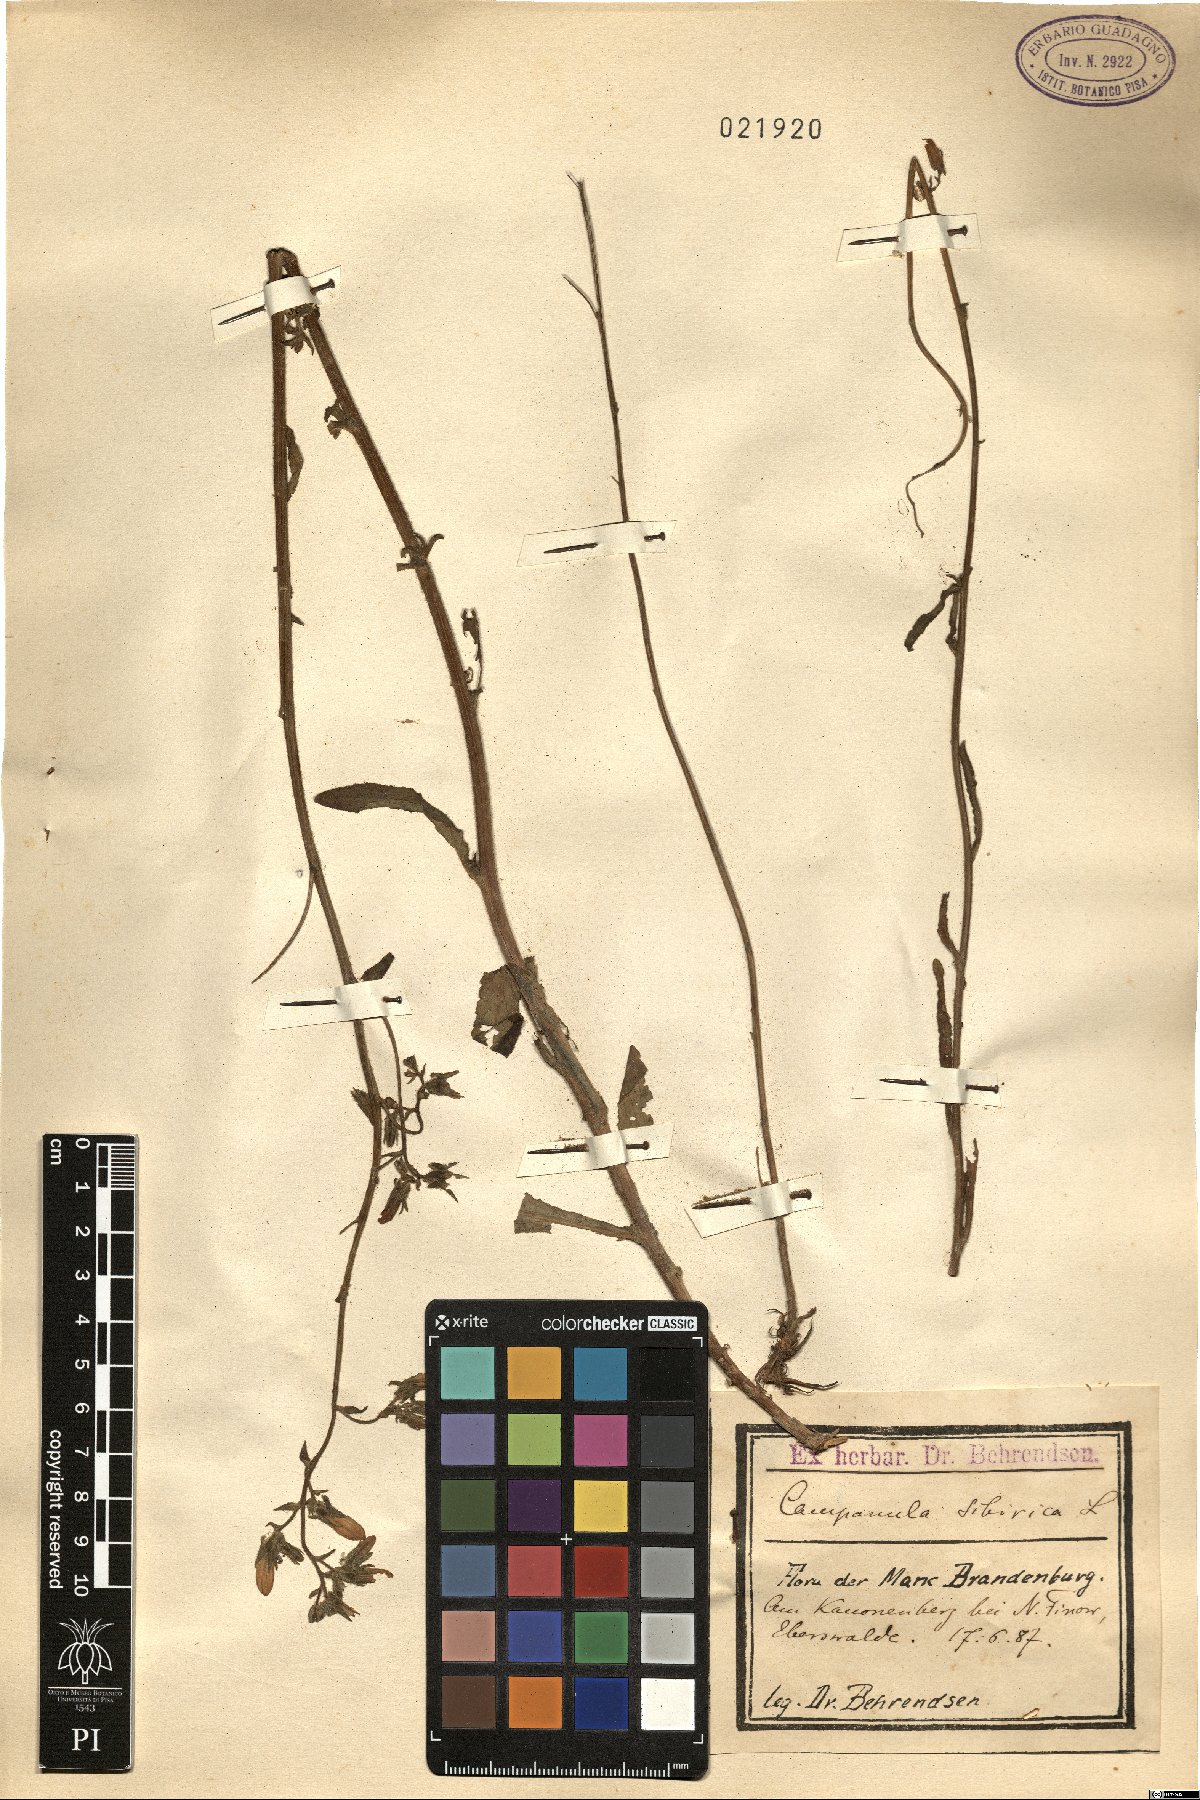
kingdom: Plantae
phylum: Tracheophyta
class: Magnoliopsida
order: Asterales
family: Campanulaceae
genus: Campanula
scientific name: Campanula sibirica
